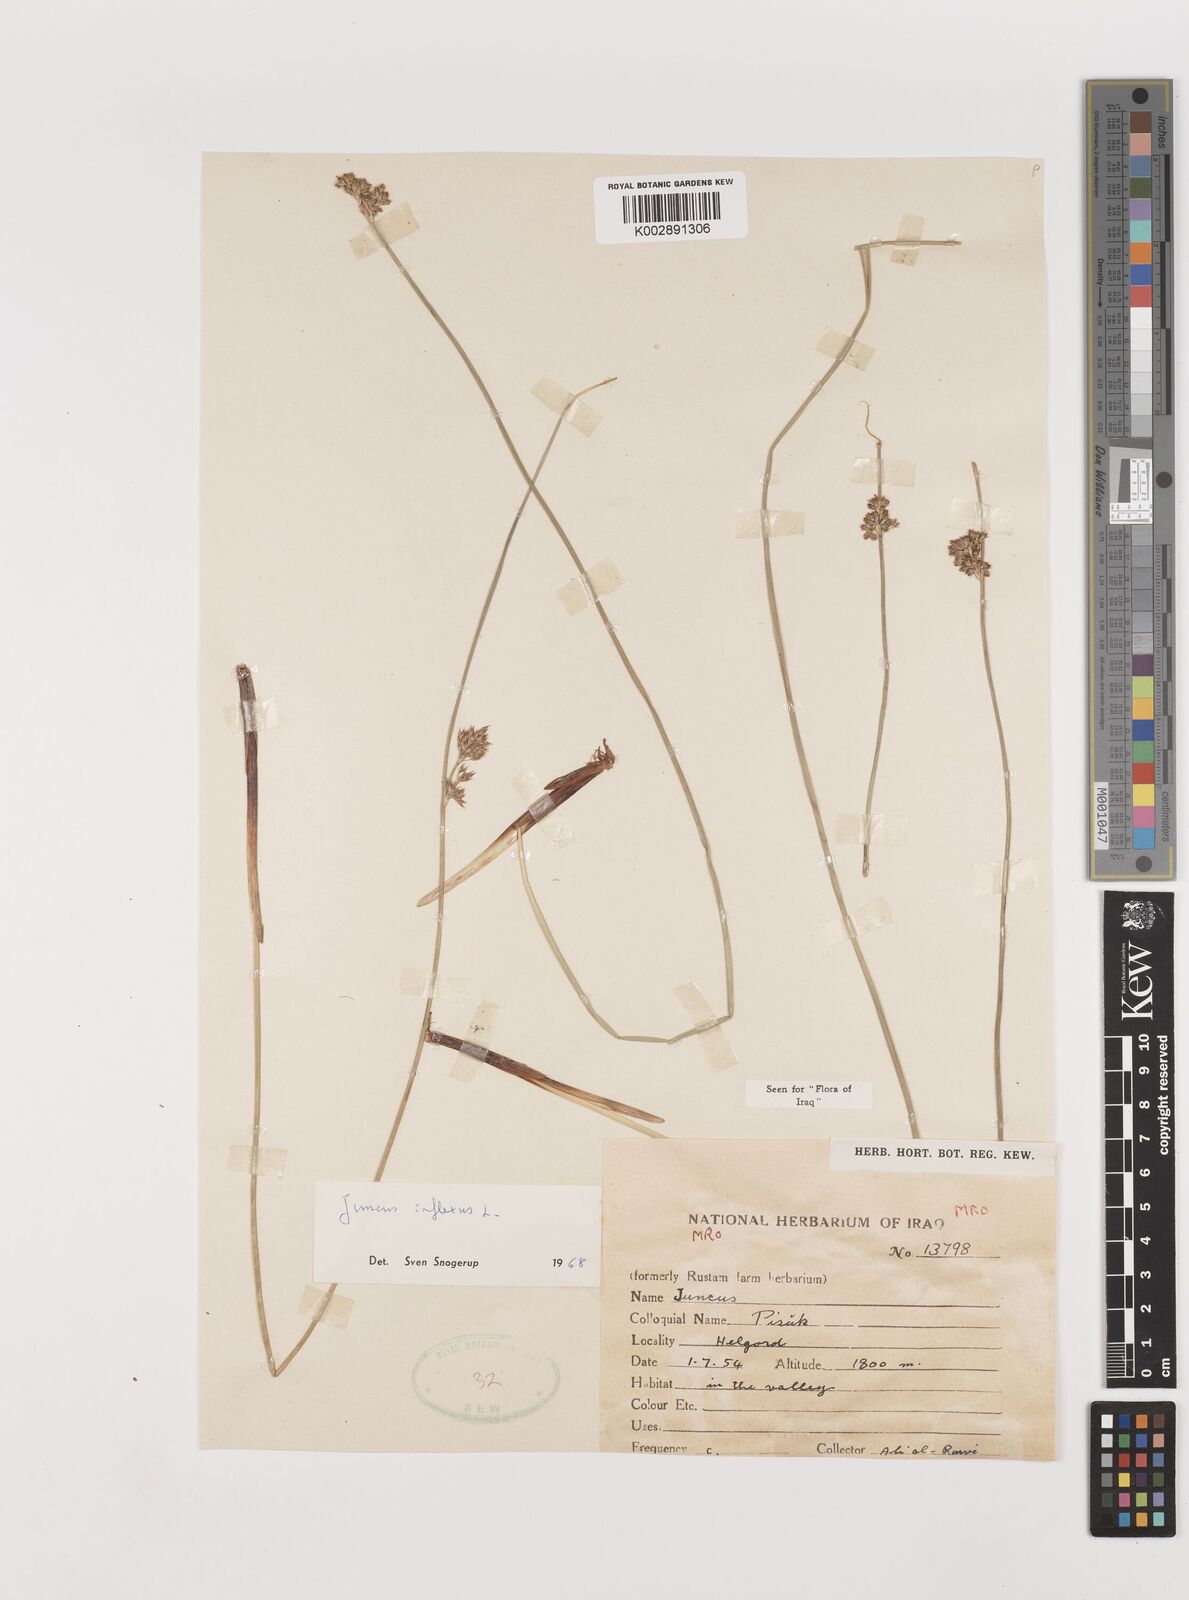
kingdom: Plantae
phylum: Tracheophyta
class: Liliopsida
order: Poales
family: Juncaceae
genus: Juncus
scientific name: Juncus inflexus
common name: Hard rush
